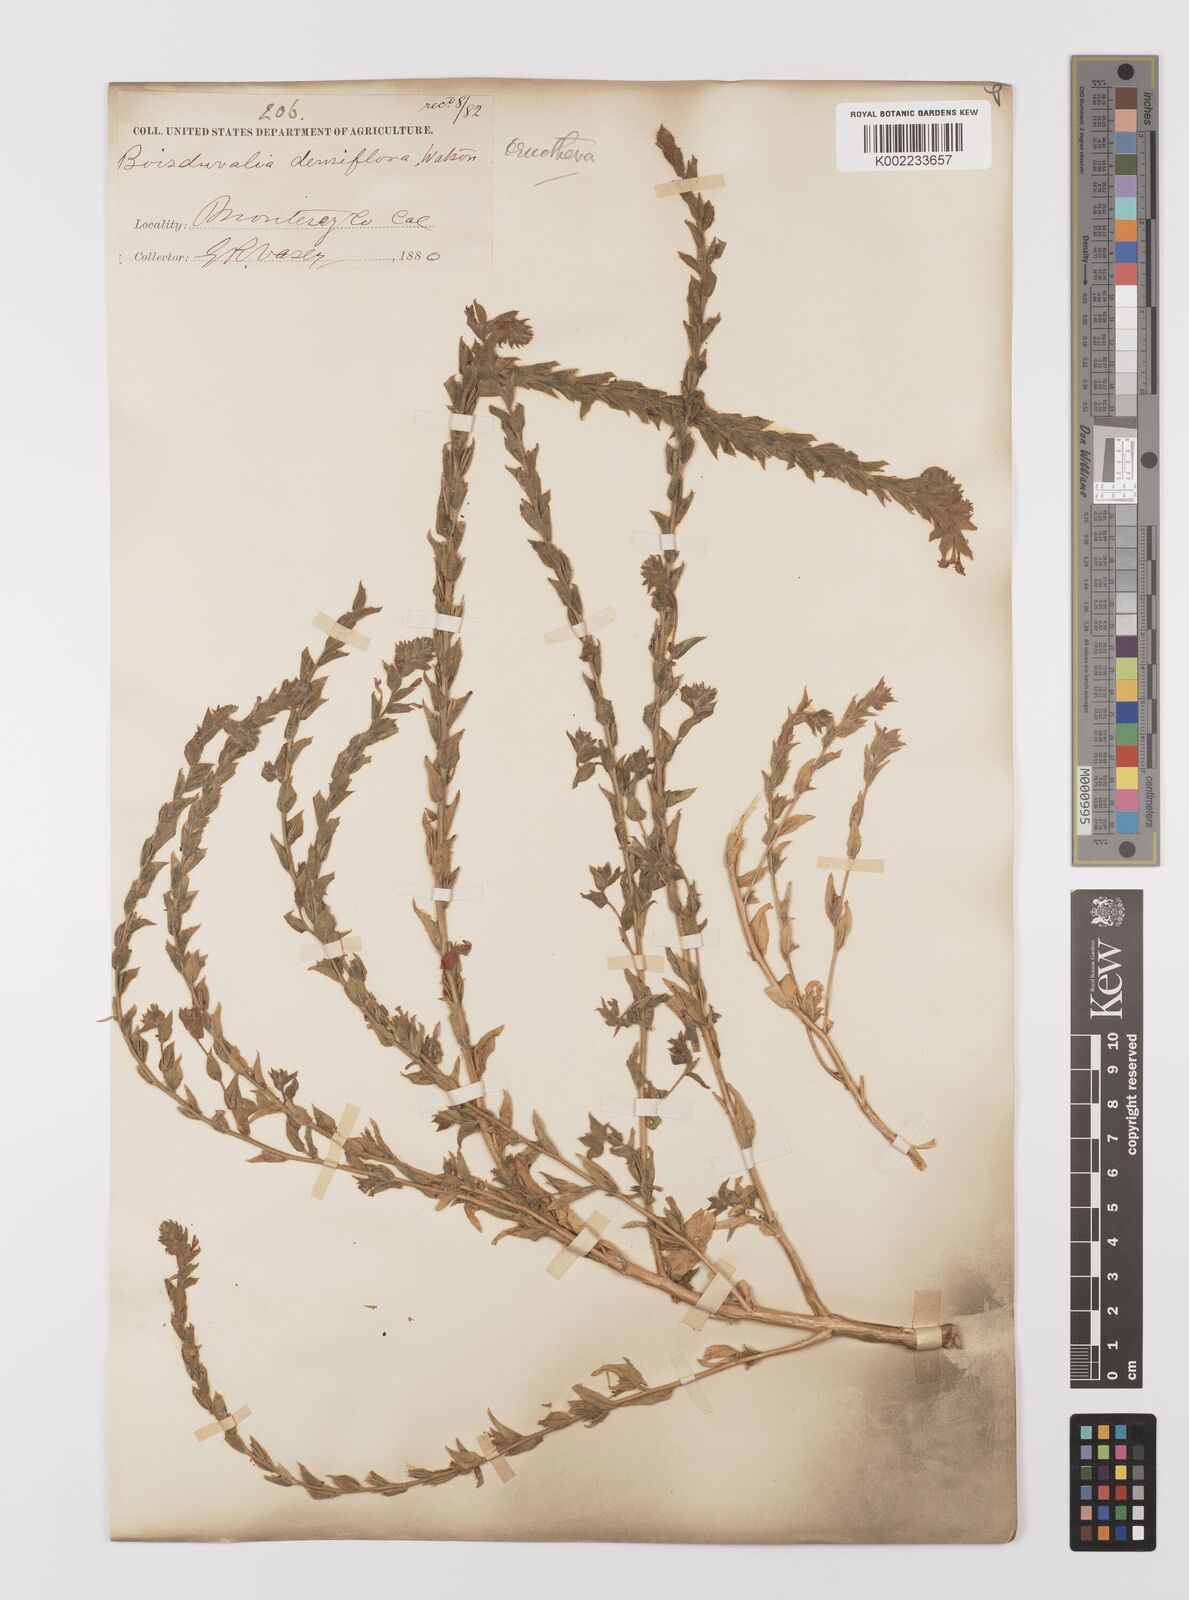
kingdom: Plantae
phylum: Tracheophyta
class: Magnoliopsida
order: Myrtales
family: Onagraceae
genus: Epilobium
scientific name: Epilobium densiflorum
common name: Dense spike-primrose
